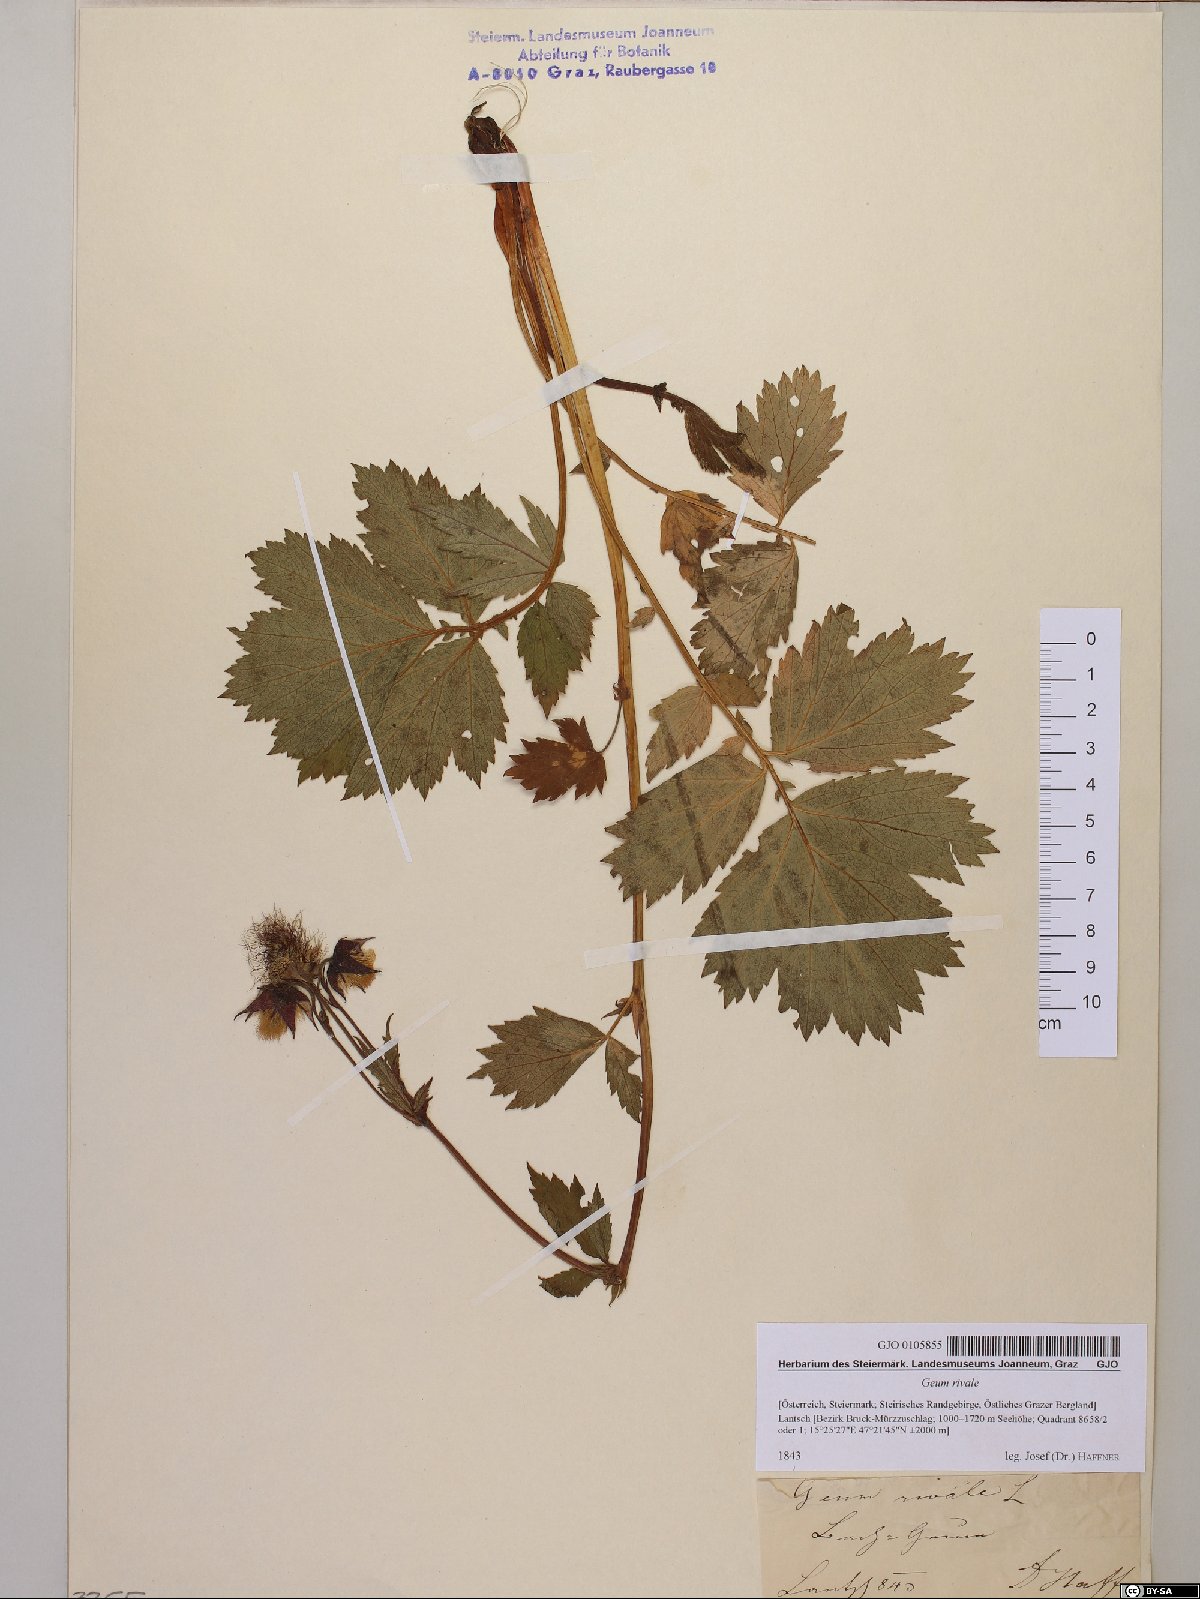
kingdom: Plantae
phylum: Tracheophyta
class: Magnoliopsida
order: Rosales
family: Rosaceae
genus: Geum
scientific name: Geum rivale
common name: Water avens
